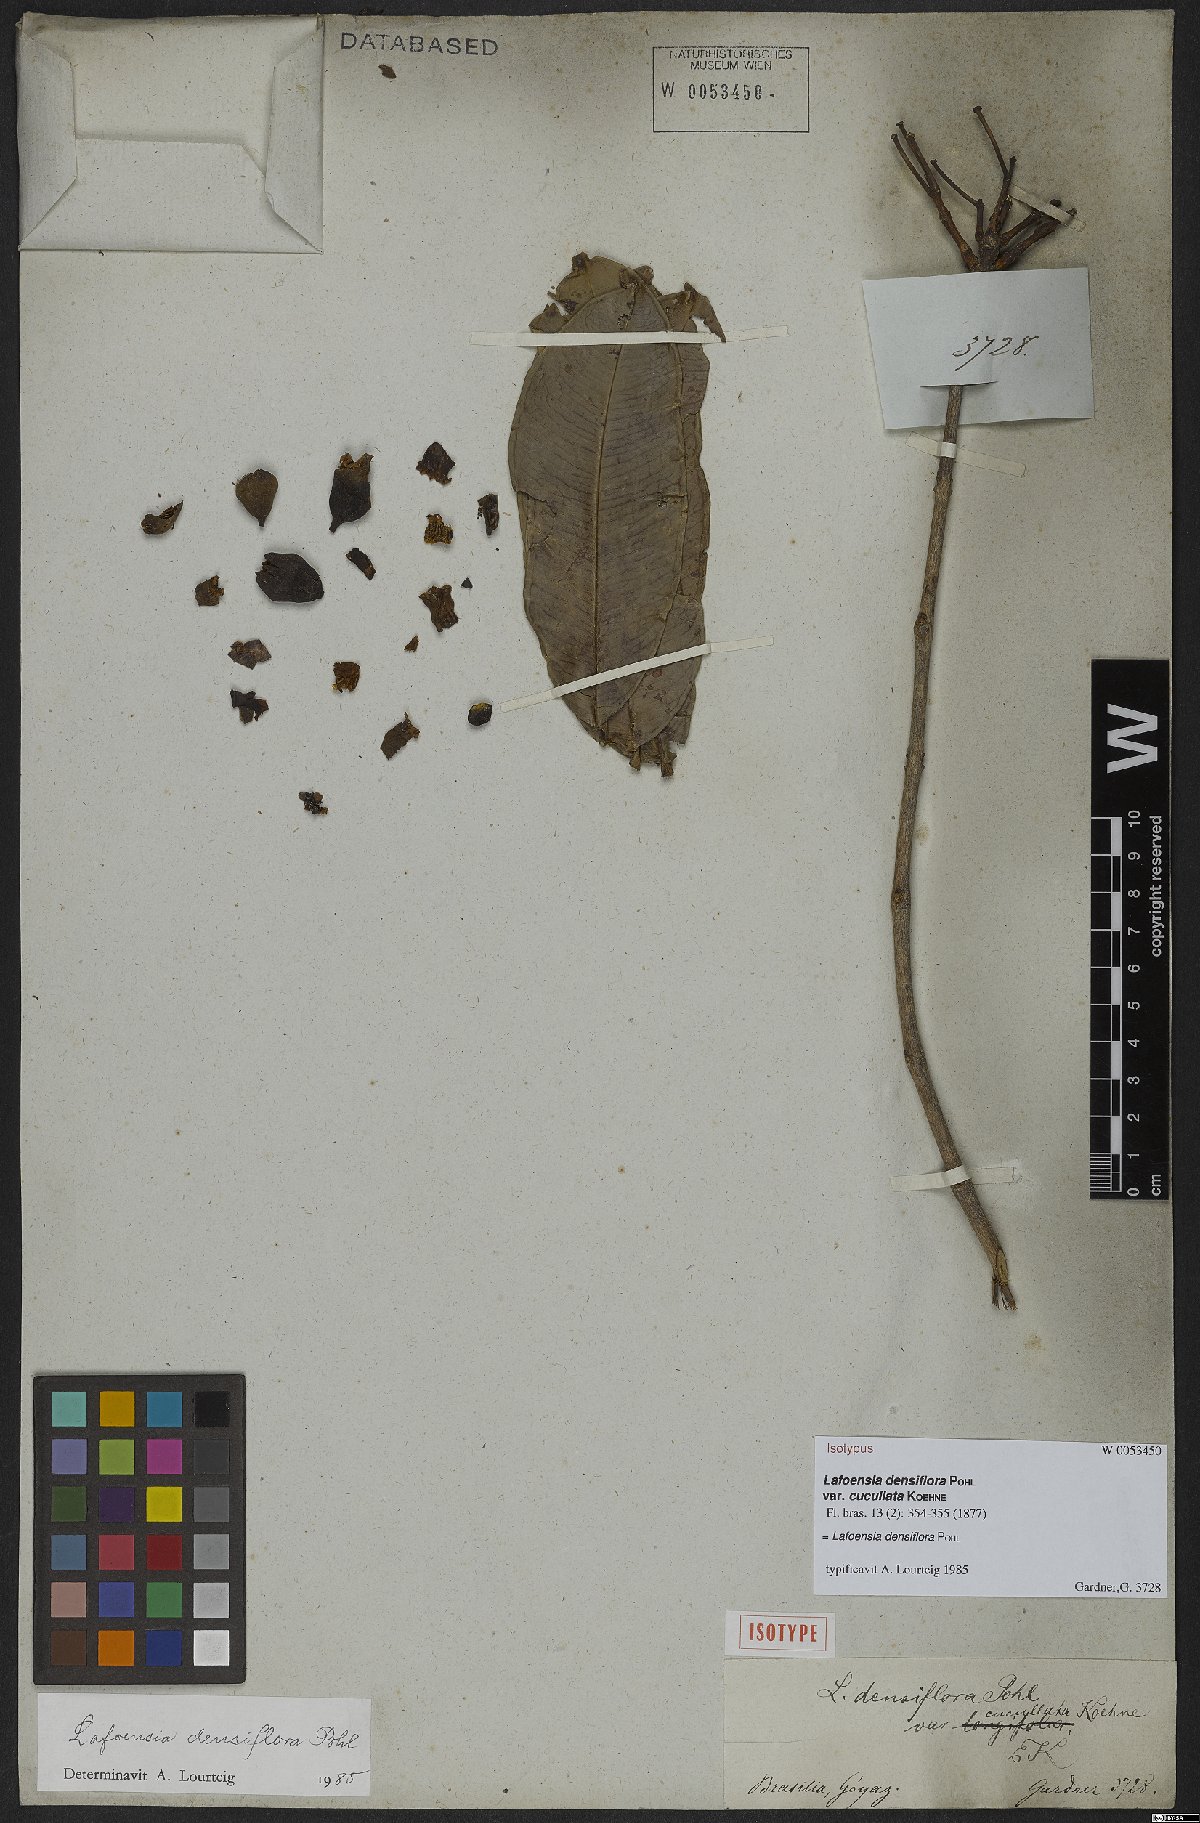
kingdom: Plantae
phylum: Tracheophyta
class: Magnoliopsida
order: Myrtales
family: Lythraceae
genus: Lafoensia
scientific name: Lafoensia vandelliana
